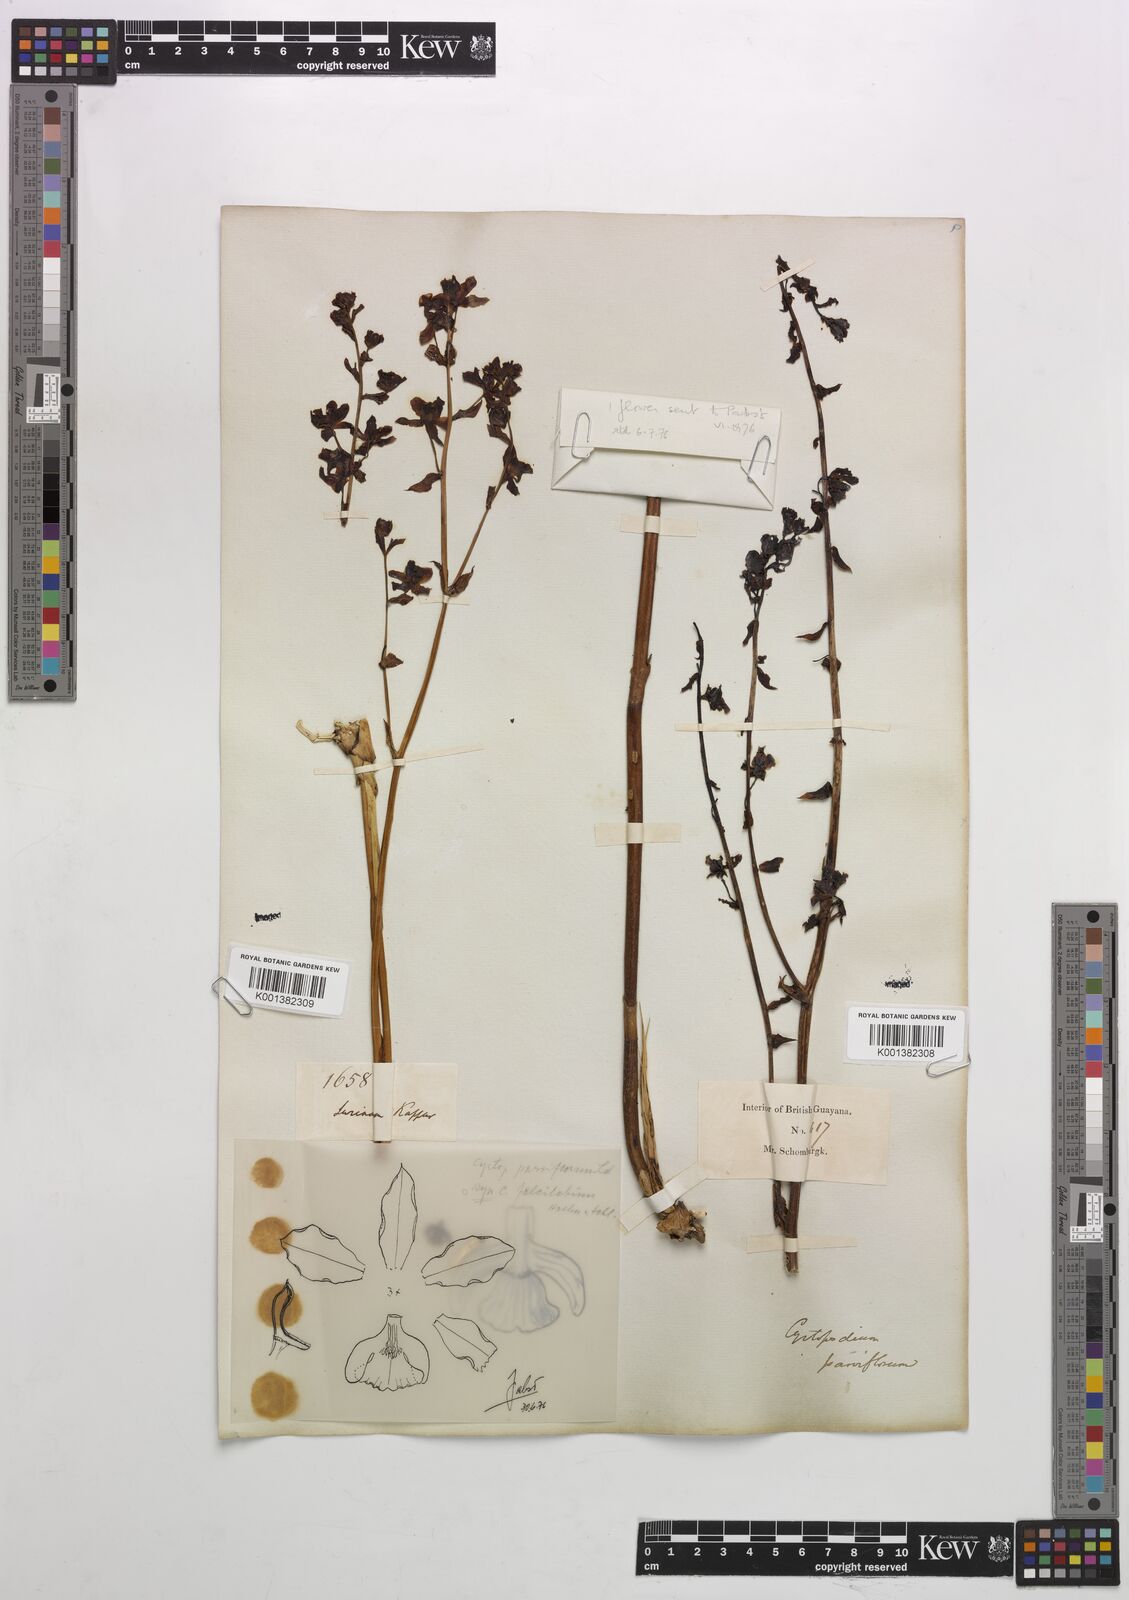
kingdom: Plantae
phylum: Tracheophyta
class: Liliopsida
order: Asparagales
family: Orchidaceae
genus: Cyrtopodium
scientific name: Cyrtopodium parviflorum
